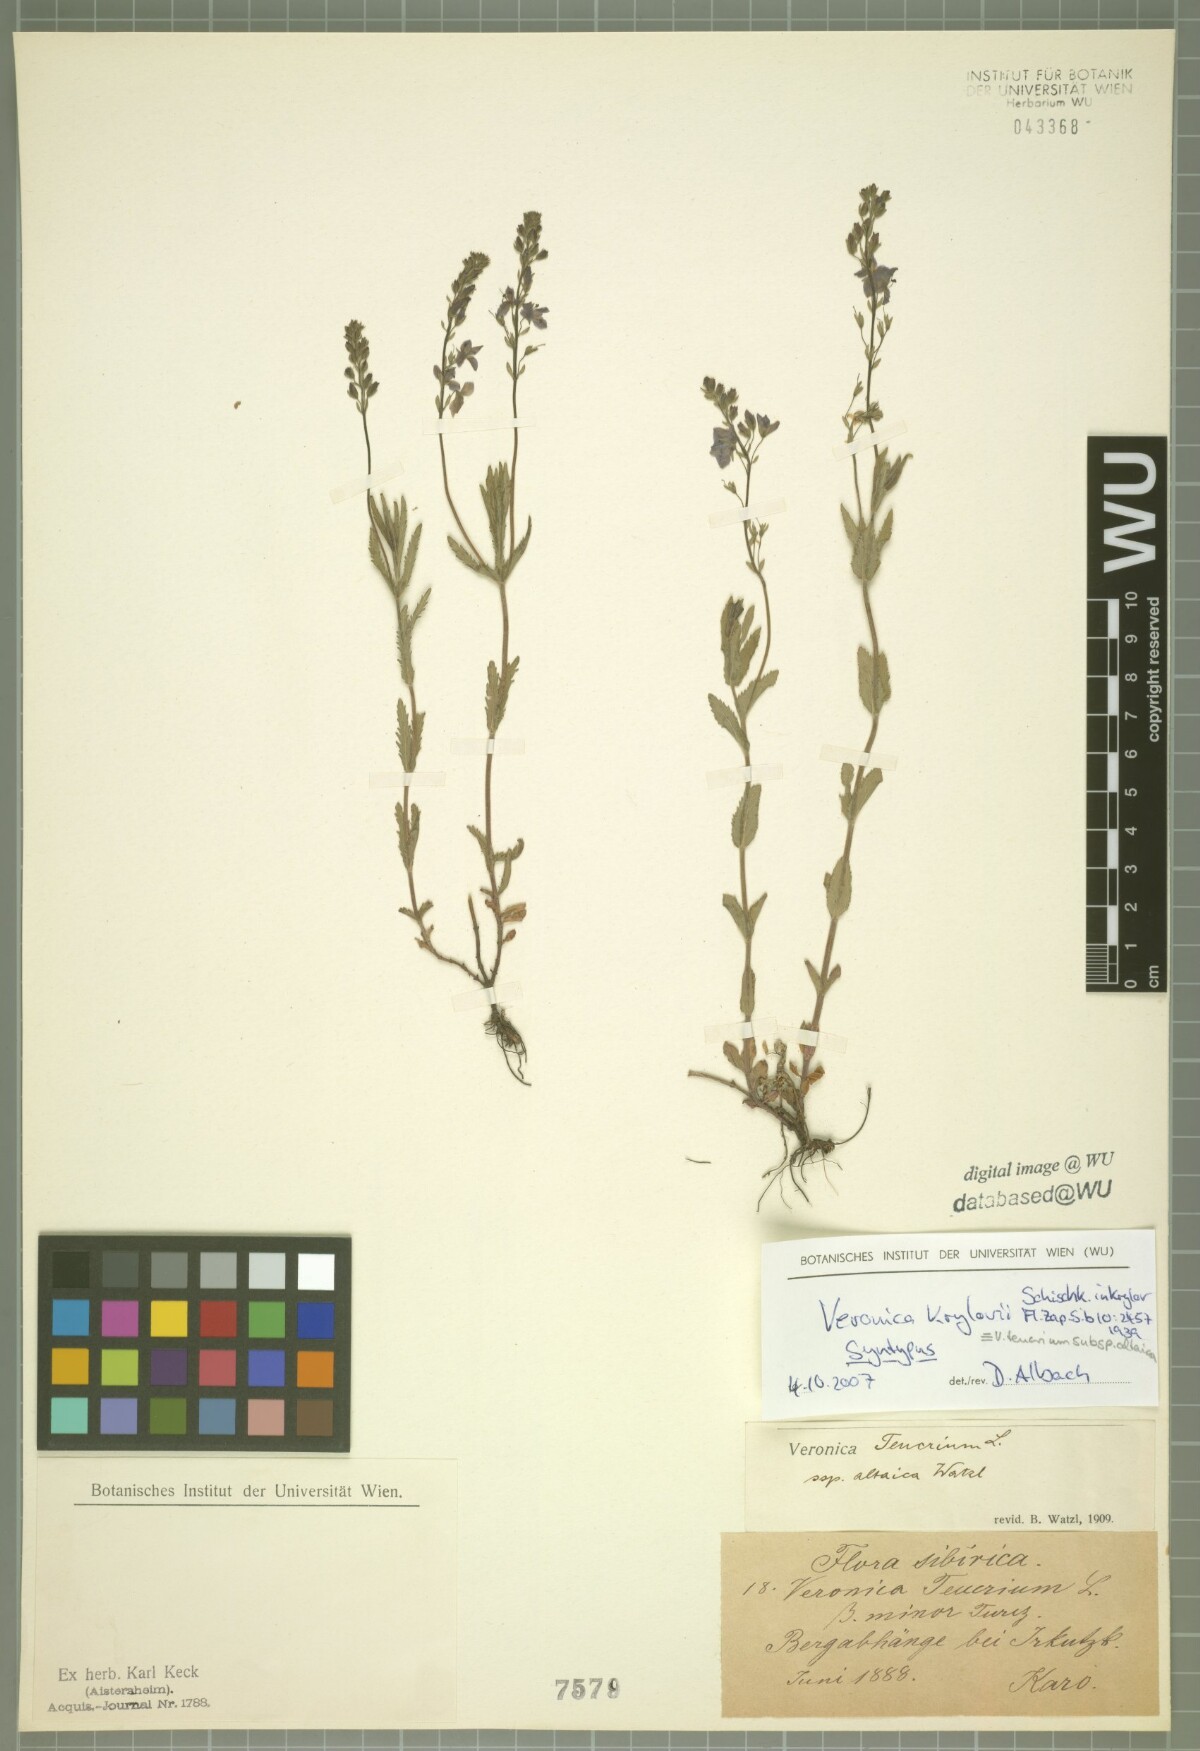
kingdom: Plantae
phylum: Tracheophyta
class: Magnoliopsida
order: Lamiales
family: Plantaginaceae
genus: Veronica
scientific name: Veronica krylovii
